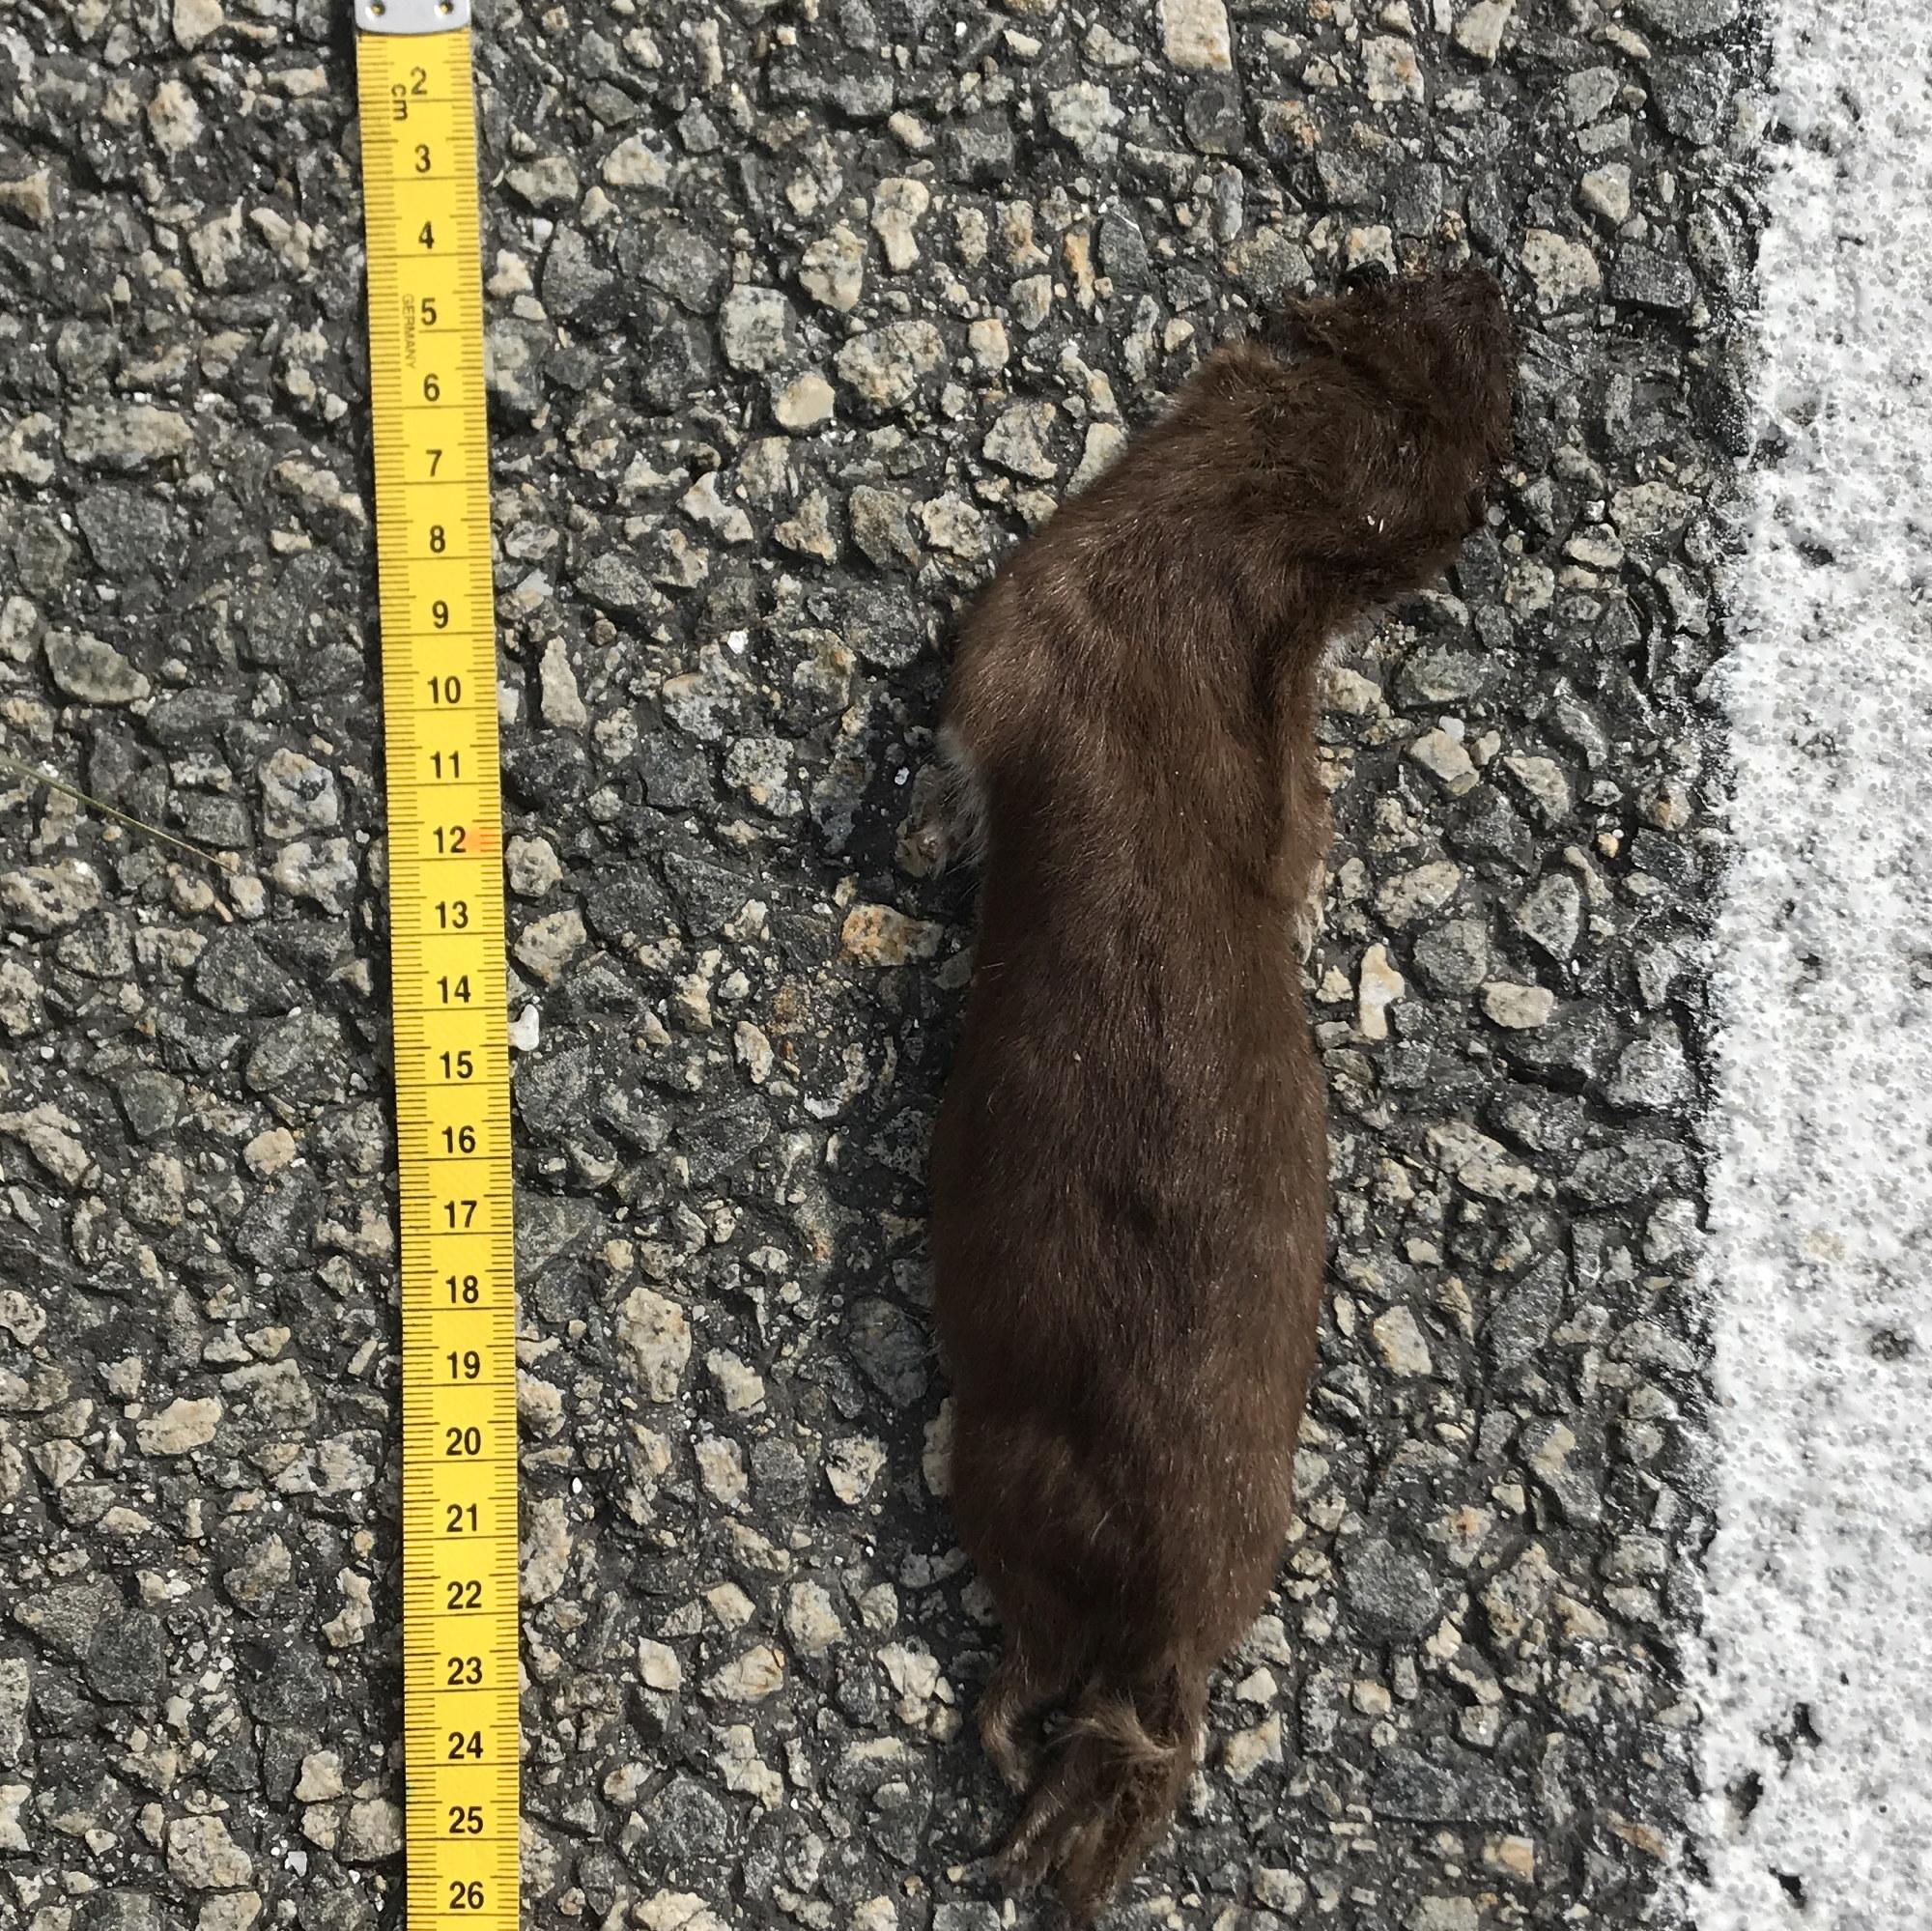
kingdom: Animalia
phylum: Chordata
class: Mammalia
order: Carnivora
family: Mustelidae
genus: Mustela
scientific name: Mustela nivalis
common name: Least weasel
